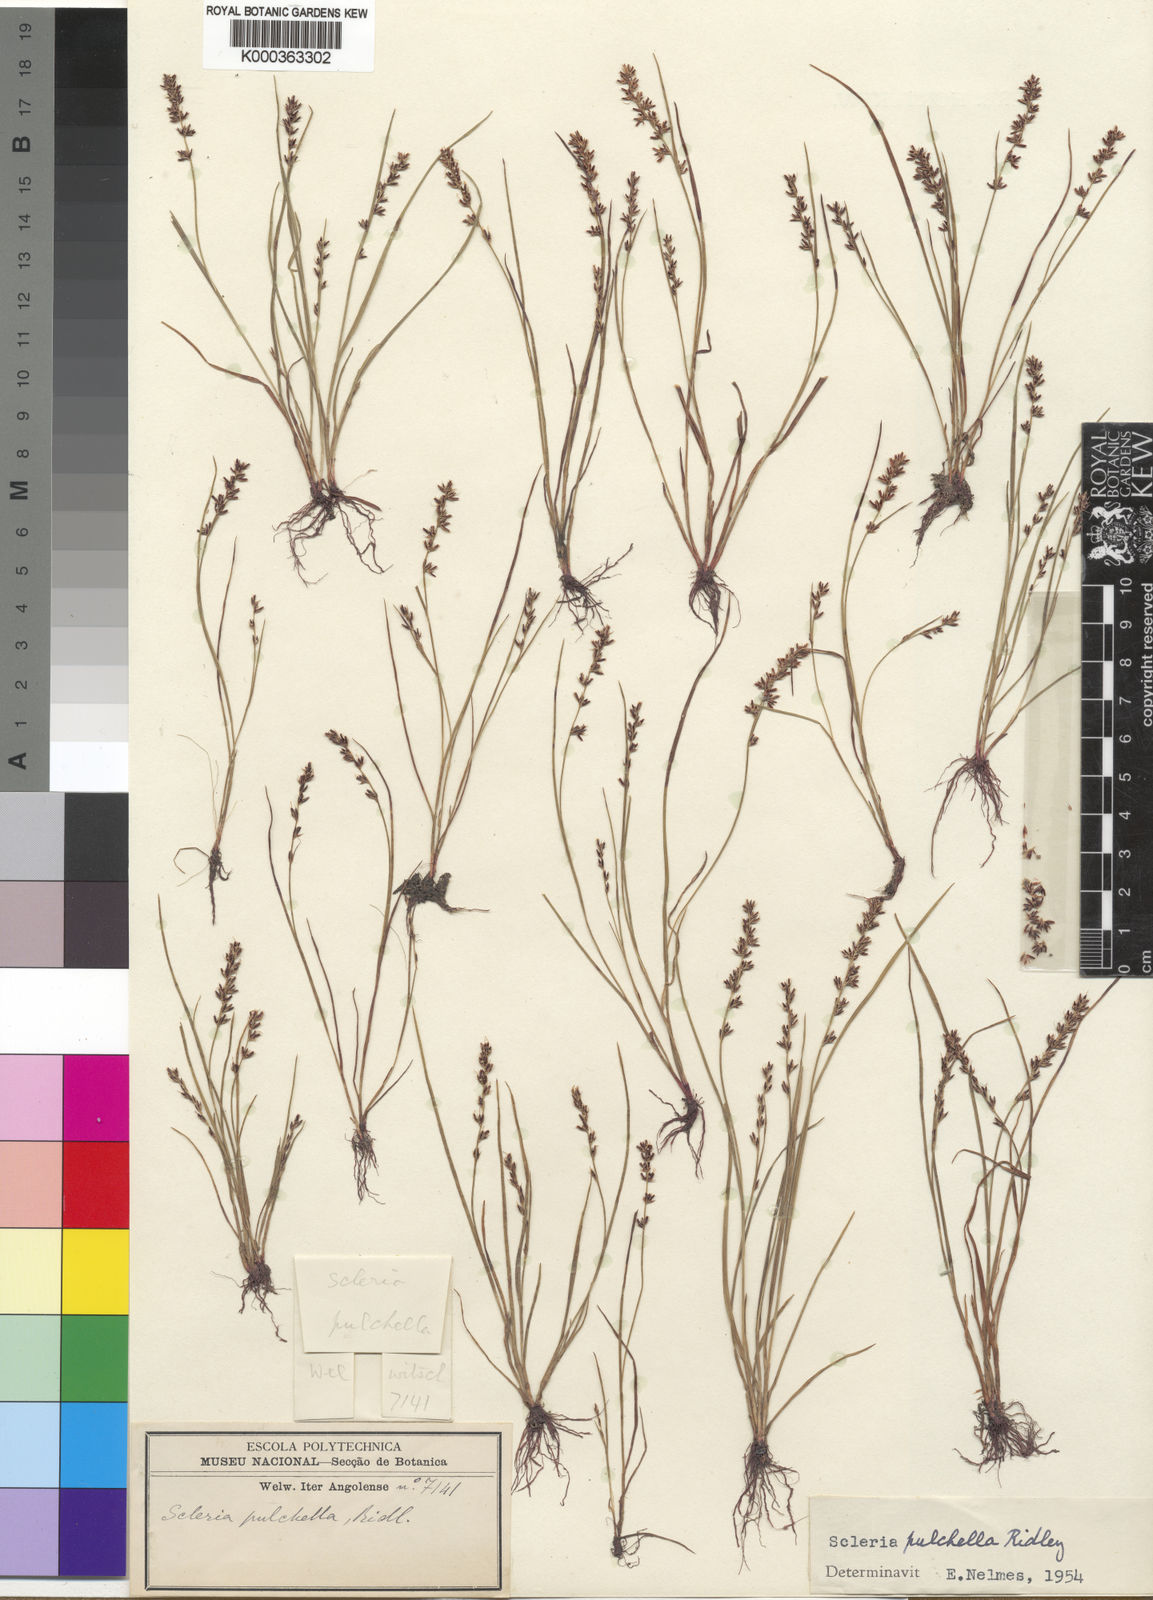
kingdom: Plantae
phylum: Tracheophyta
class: Liliopsida
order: Poales
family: Cyperaceae
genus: Scleria
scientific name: Scleria pulchella
